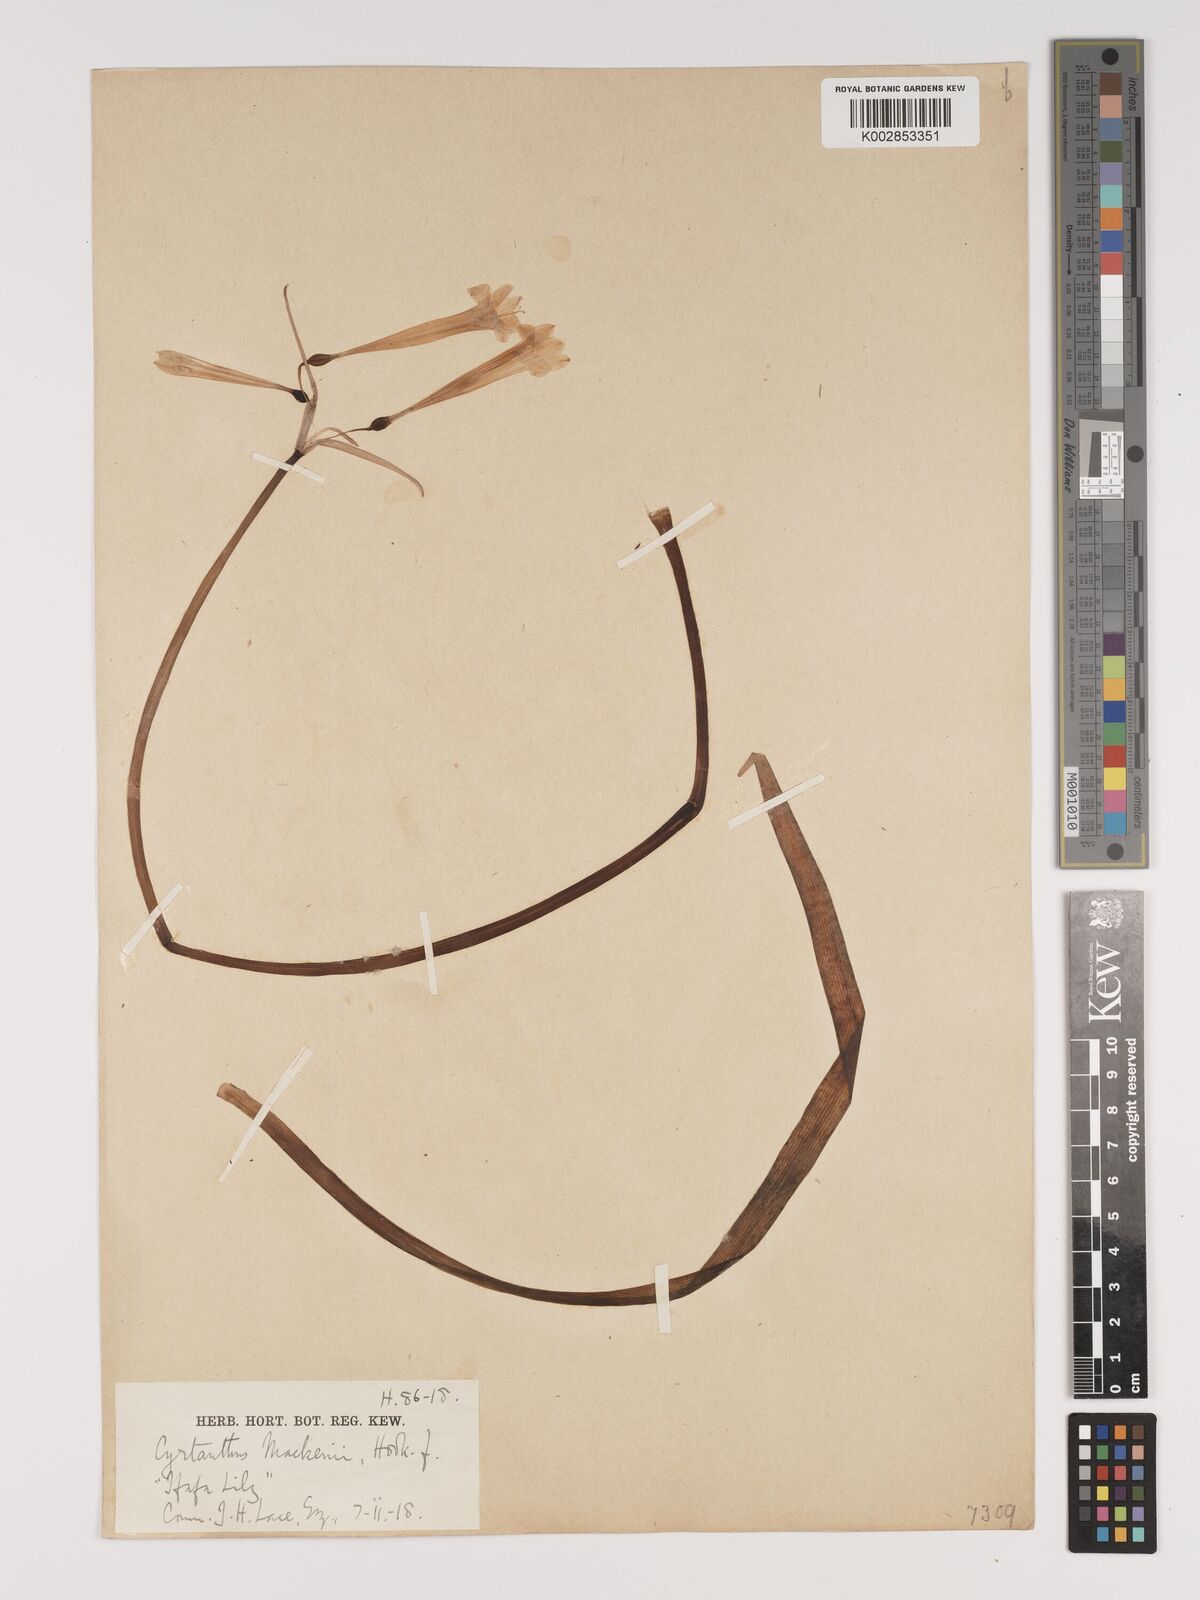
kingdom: Plantae
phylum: Tracheophyta
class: Liliopsida
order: Asparagales
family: Amaryllidaceae
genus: Cyrtanthus
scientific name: Cyrtanthus mackenii
